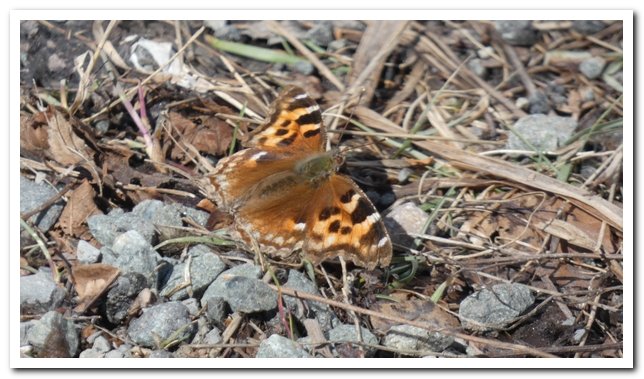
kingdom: Animalia
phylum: Arthropoda
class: Insecta
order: Lepidoptera
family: Nymphalidae
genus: Polygonia
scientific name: Polygonia vaualbum
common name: Compton Tortoiseshell
